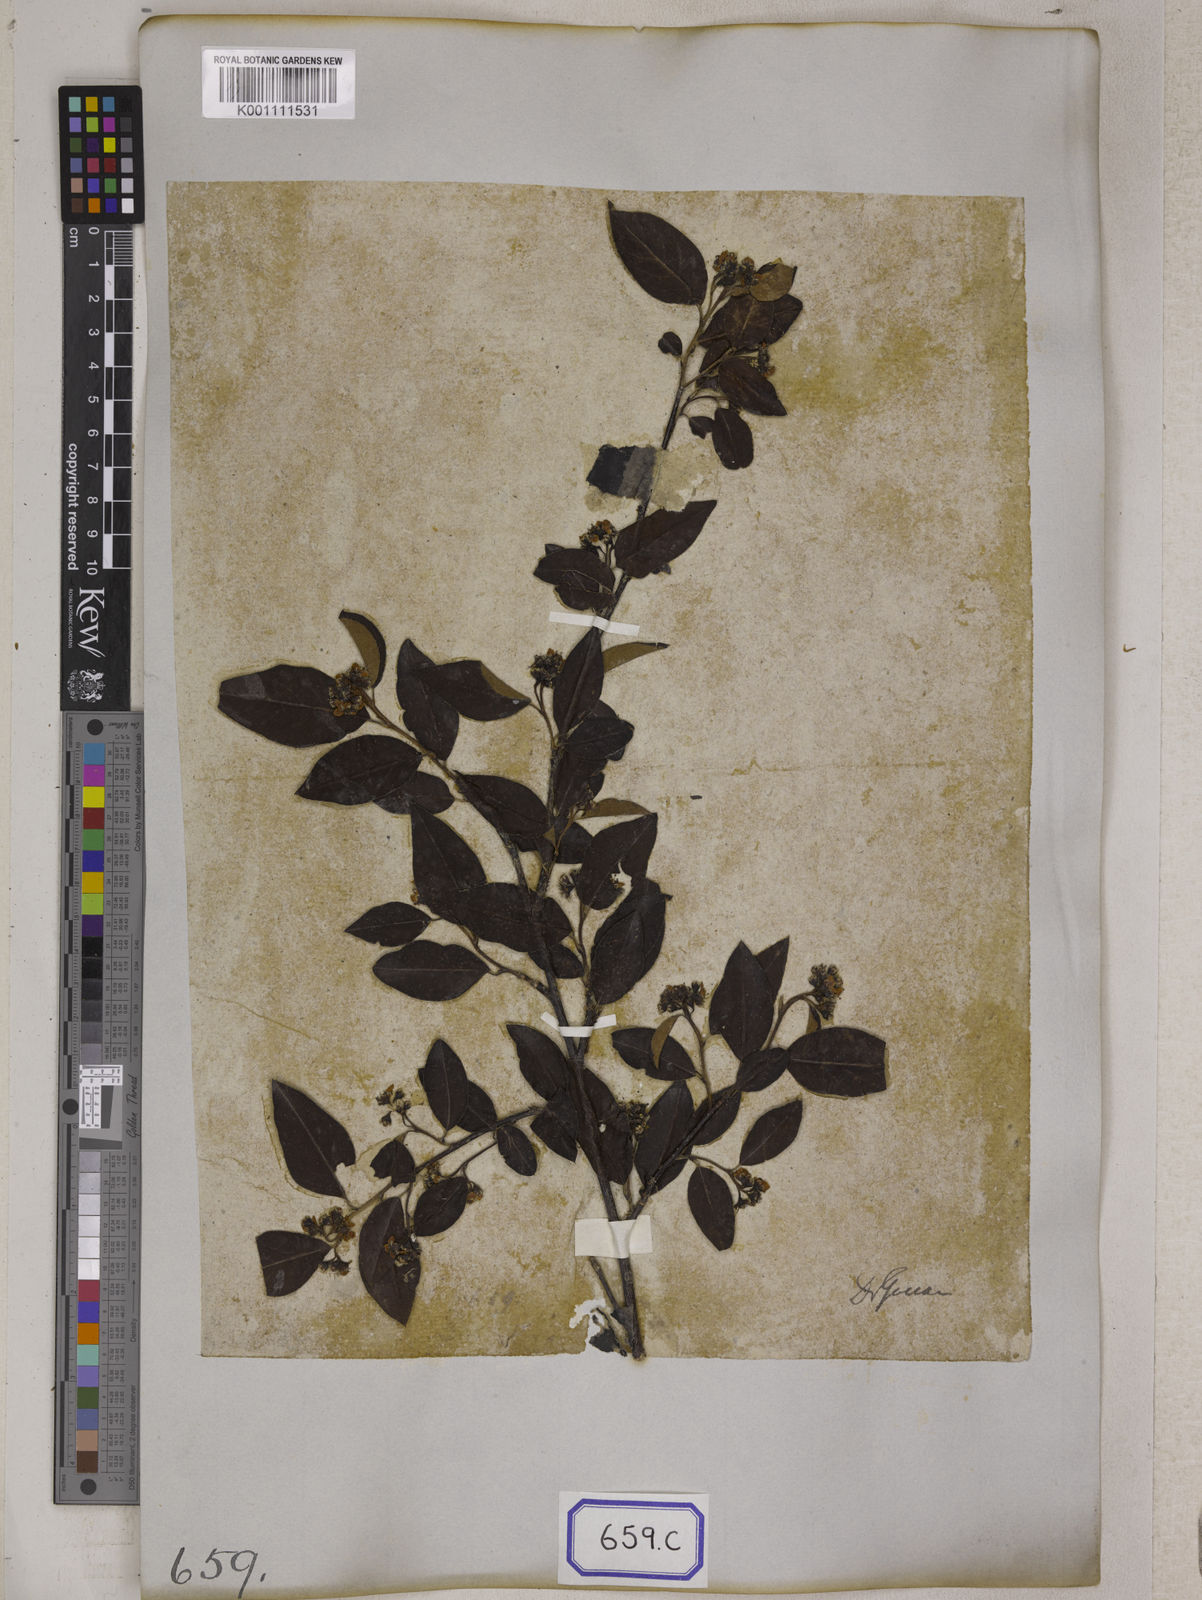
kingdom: Plantae
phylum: Tracheophyta
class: Magnoliopsida
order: Rosales
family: Rosaceae
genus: Cotoneaster
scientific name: Cotoneaster
